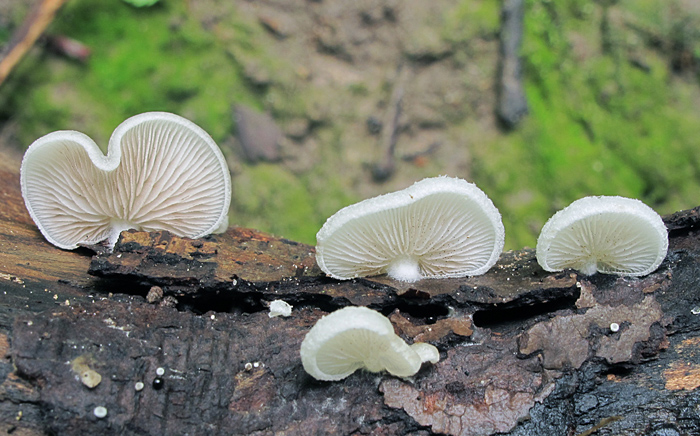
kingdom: Fungi
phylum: Basidiomycota
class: Agaricomycetes
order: Agaricales
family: Crepidotaceae
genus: Crepidotus
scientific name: Crepidotus mollis
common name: blød muslingesvamp
